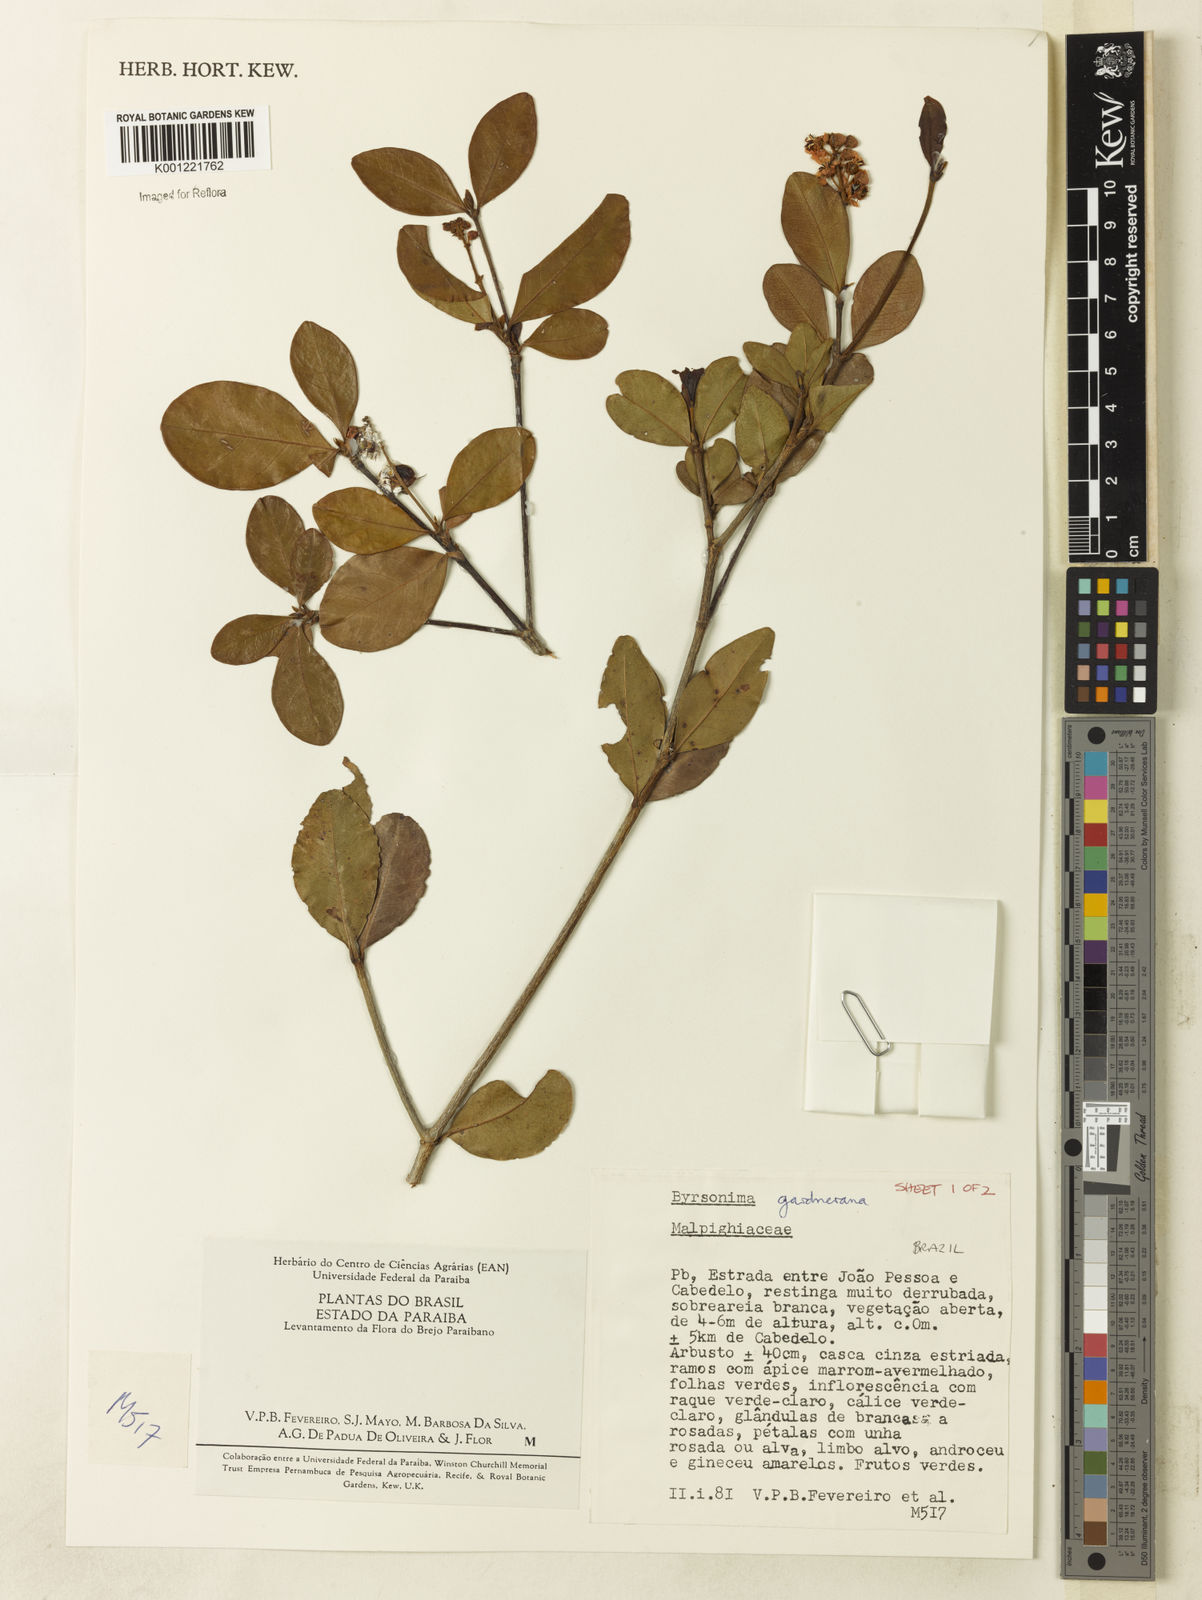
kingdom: Plantae
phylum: Tracheophyta
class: Magnoliopsida
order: Malpighiales
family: Malpighiaceae
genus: Byrsonima
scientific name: Byrsonima gardneriana
